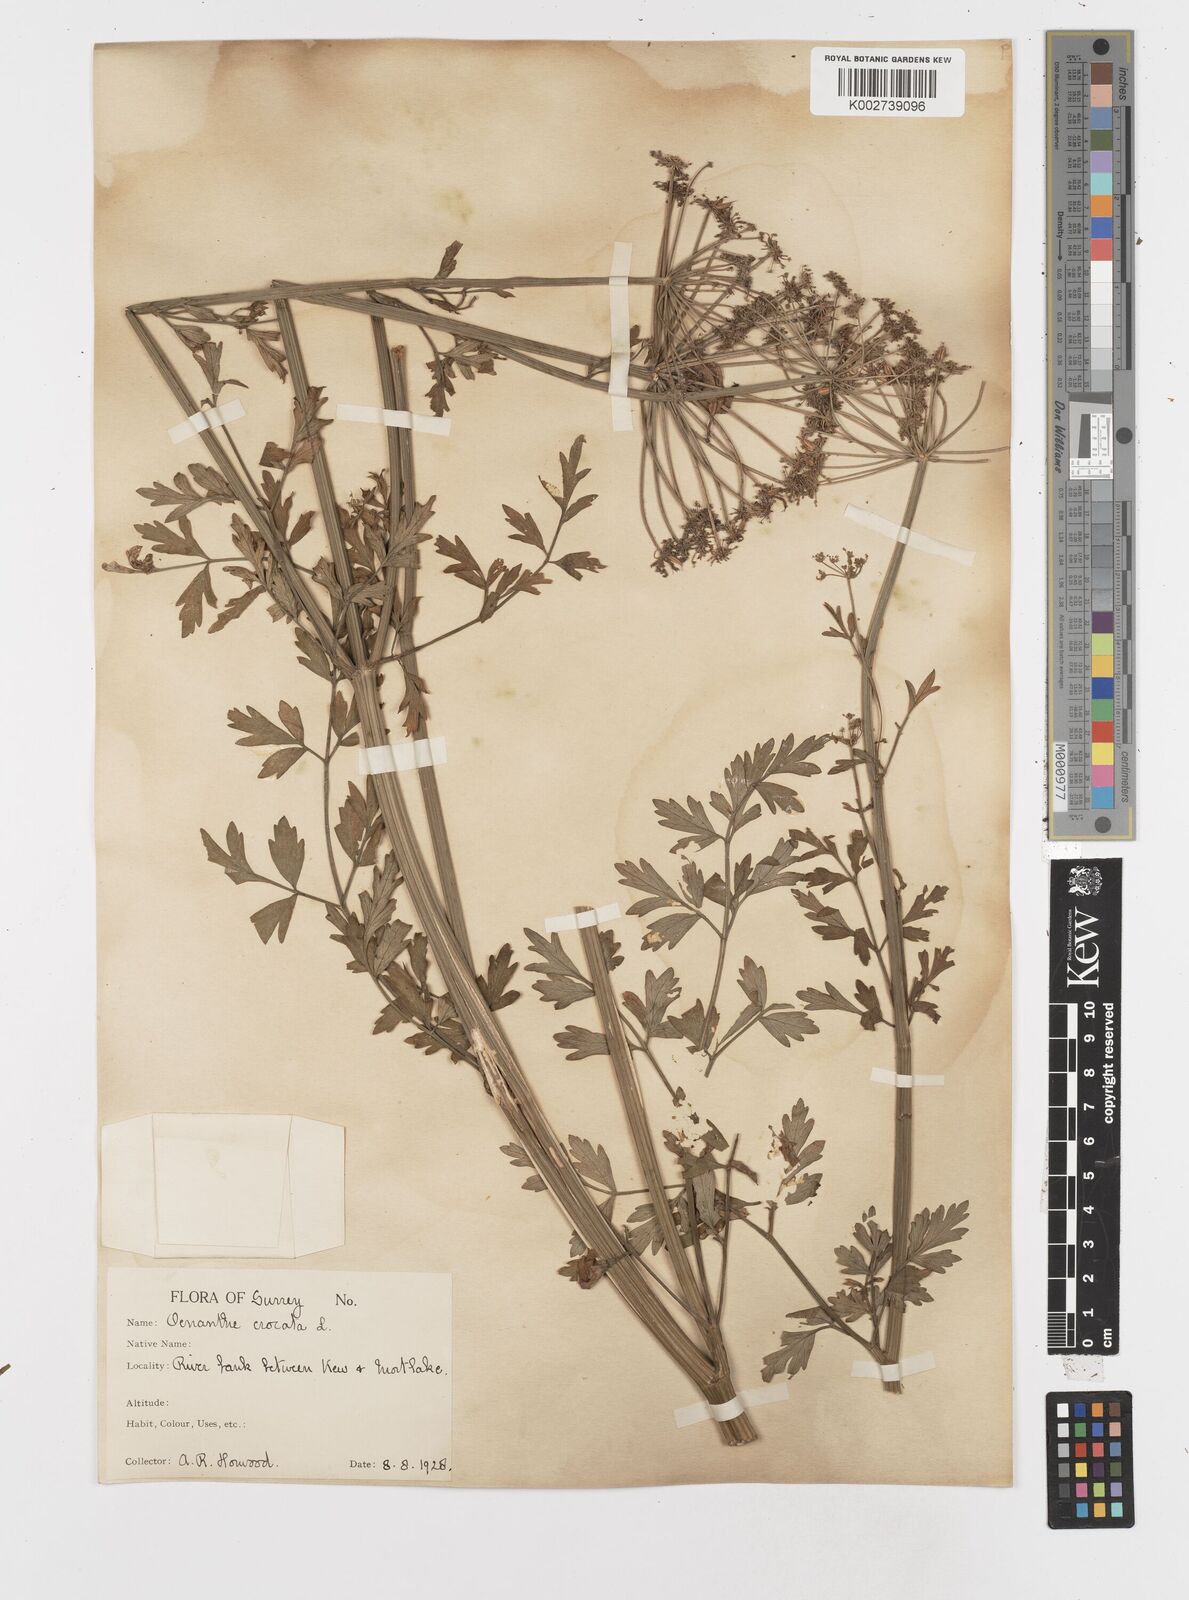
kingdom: Plantae
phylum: Tracheophyta
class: Magnoliopsida
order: Apiales
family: Apiaceae
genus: Oenanthe
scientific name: Oenanthe crocata
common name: Hemlock water-dropwort
